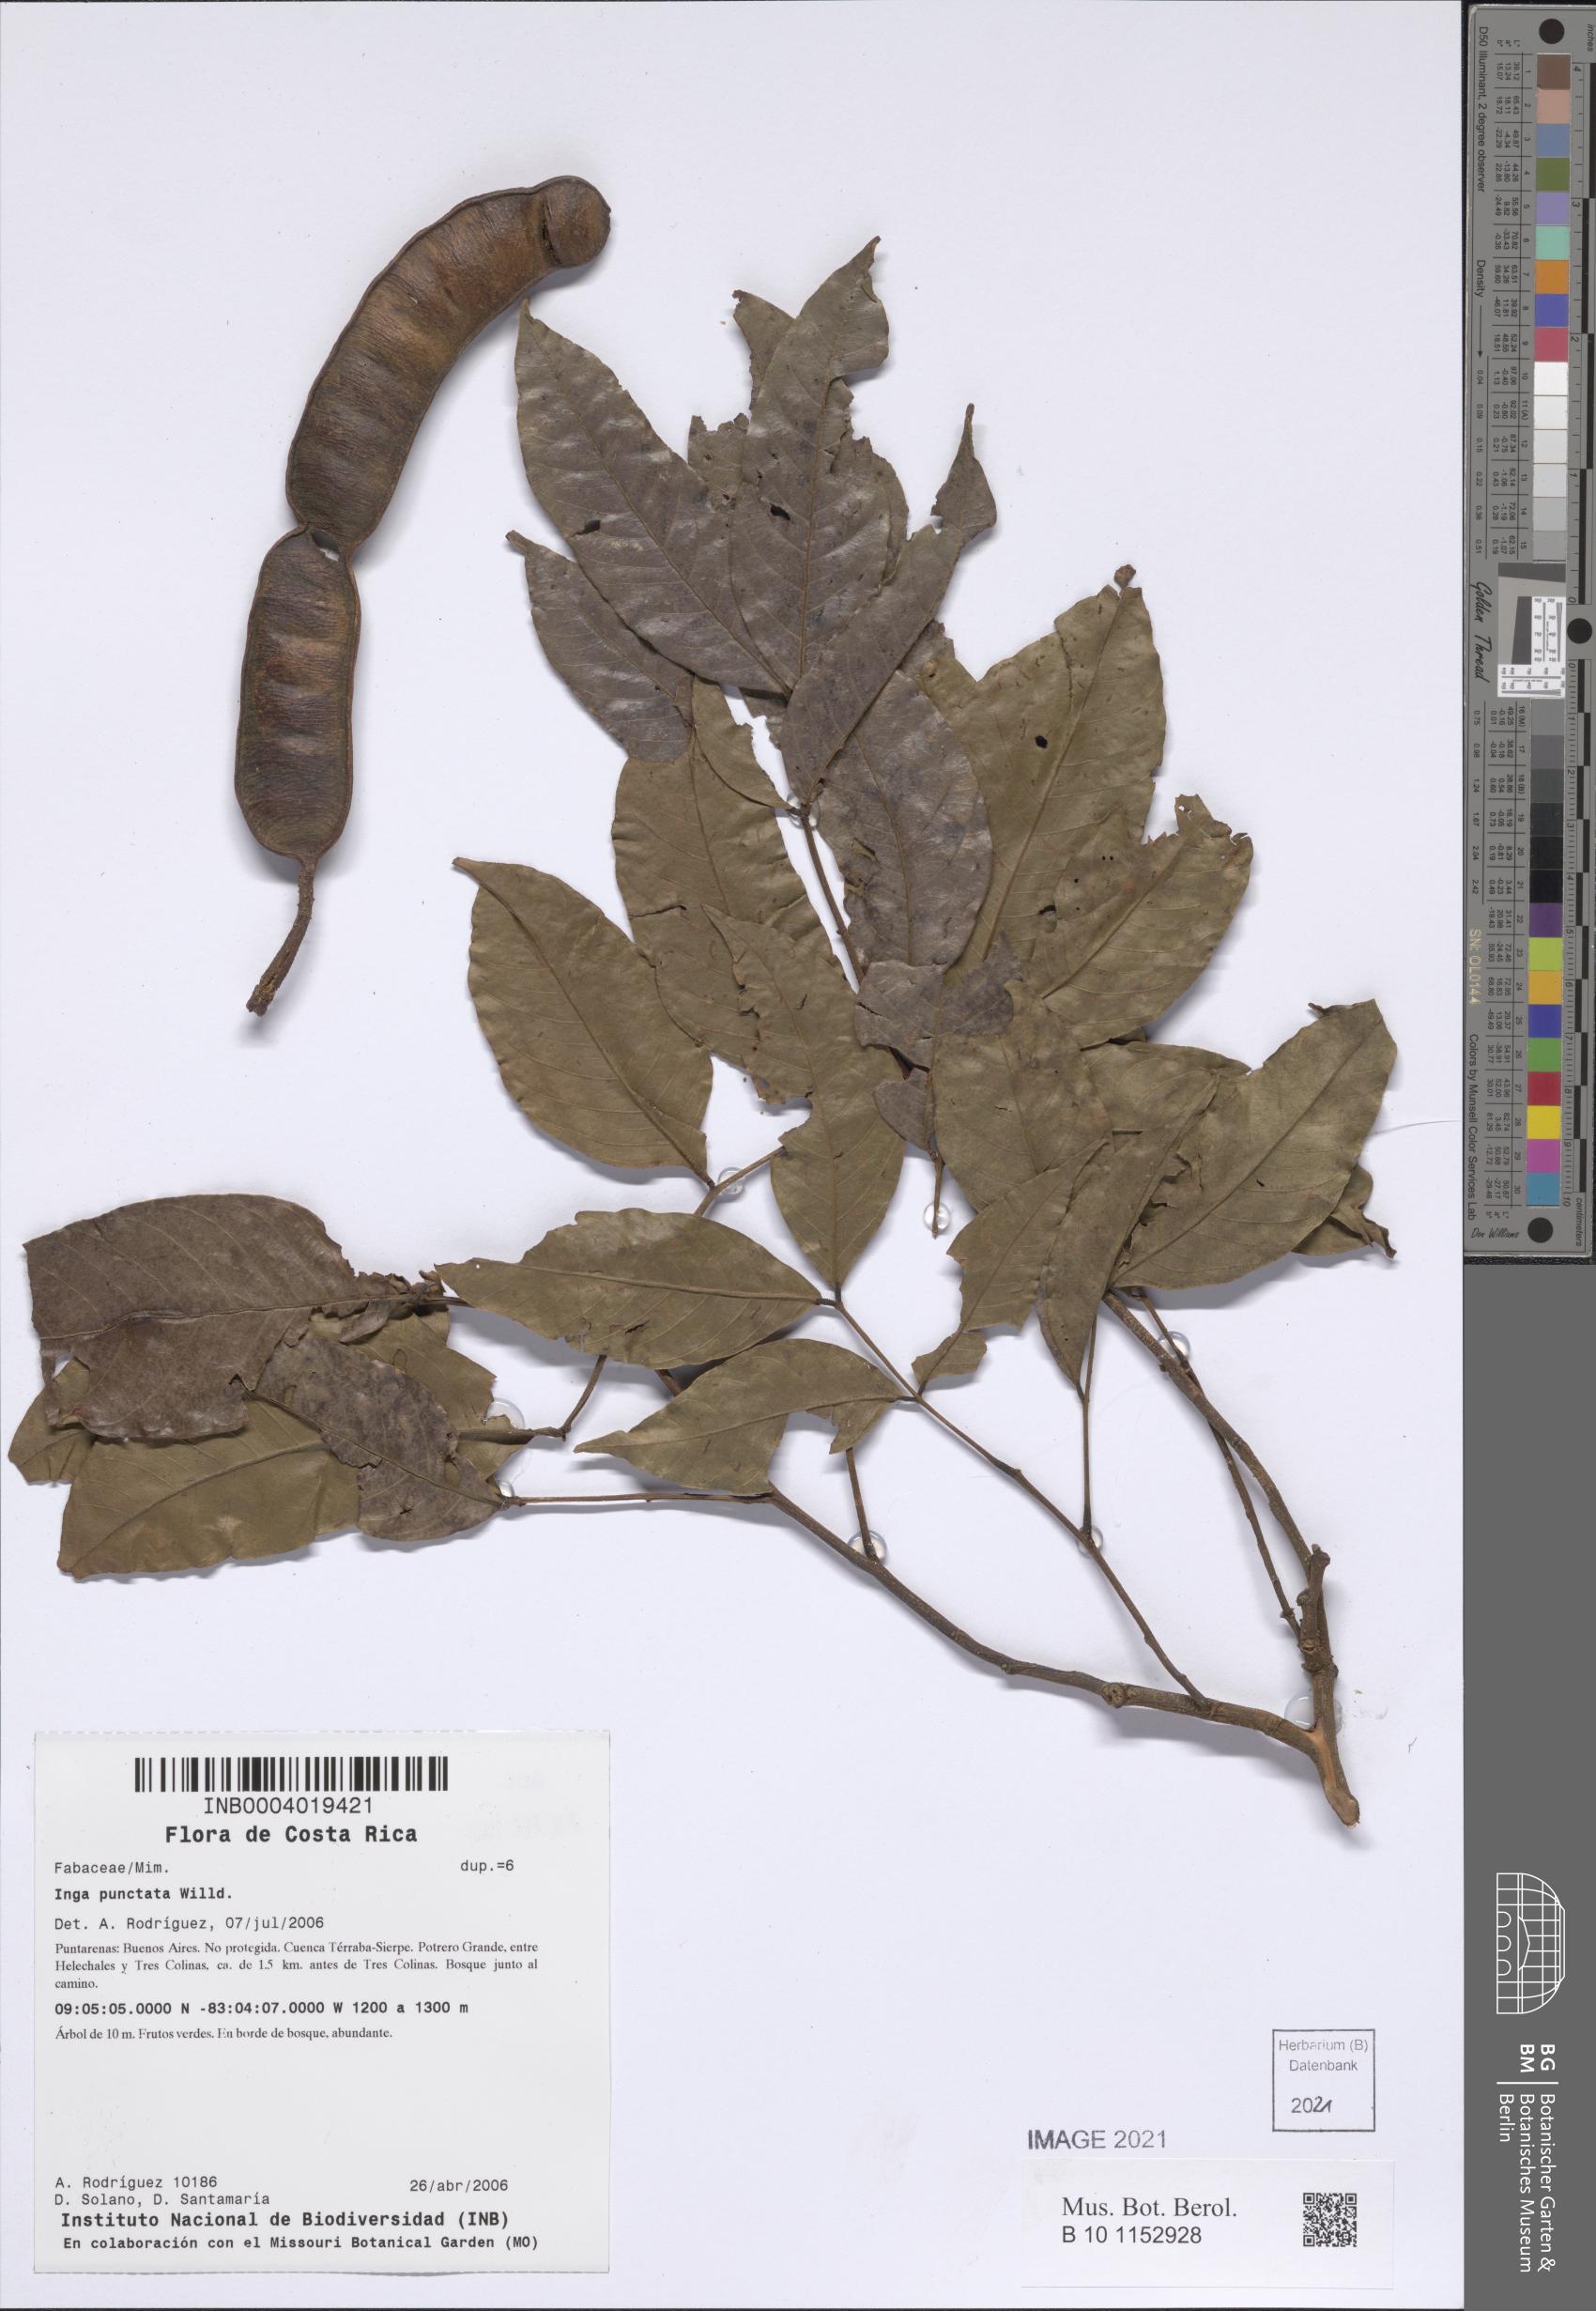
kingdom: Plantae
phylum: Tracheophyta
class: Magnoliopsida
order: Fabales
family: Fabaceae
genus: Inga
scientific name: Inga punctata
